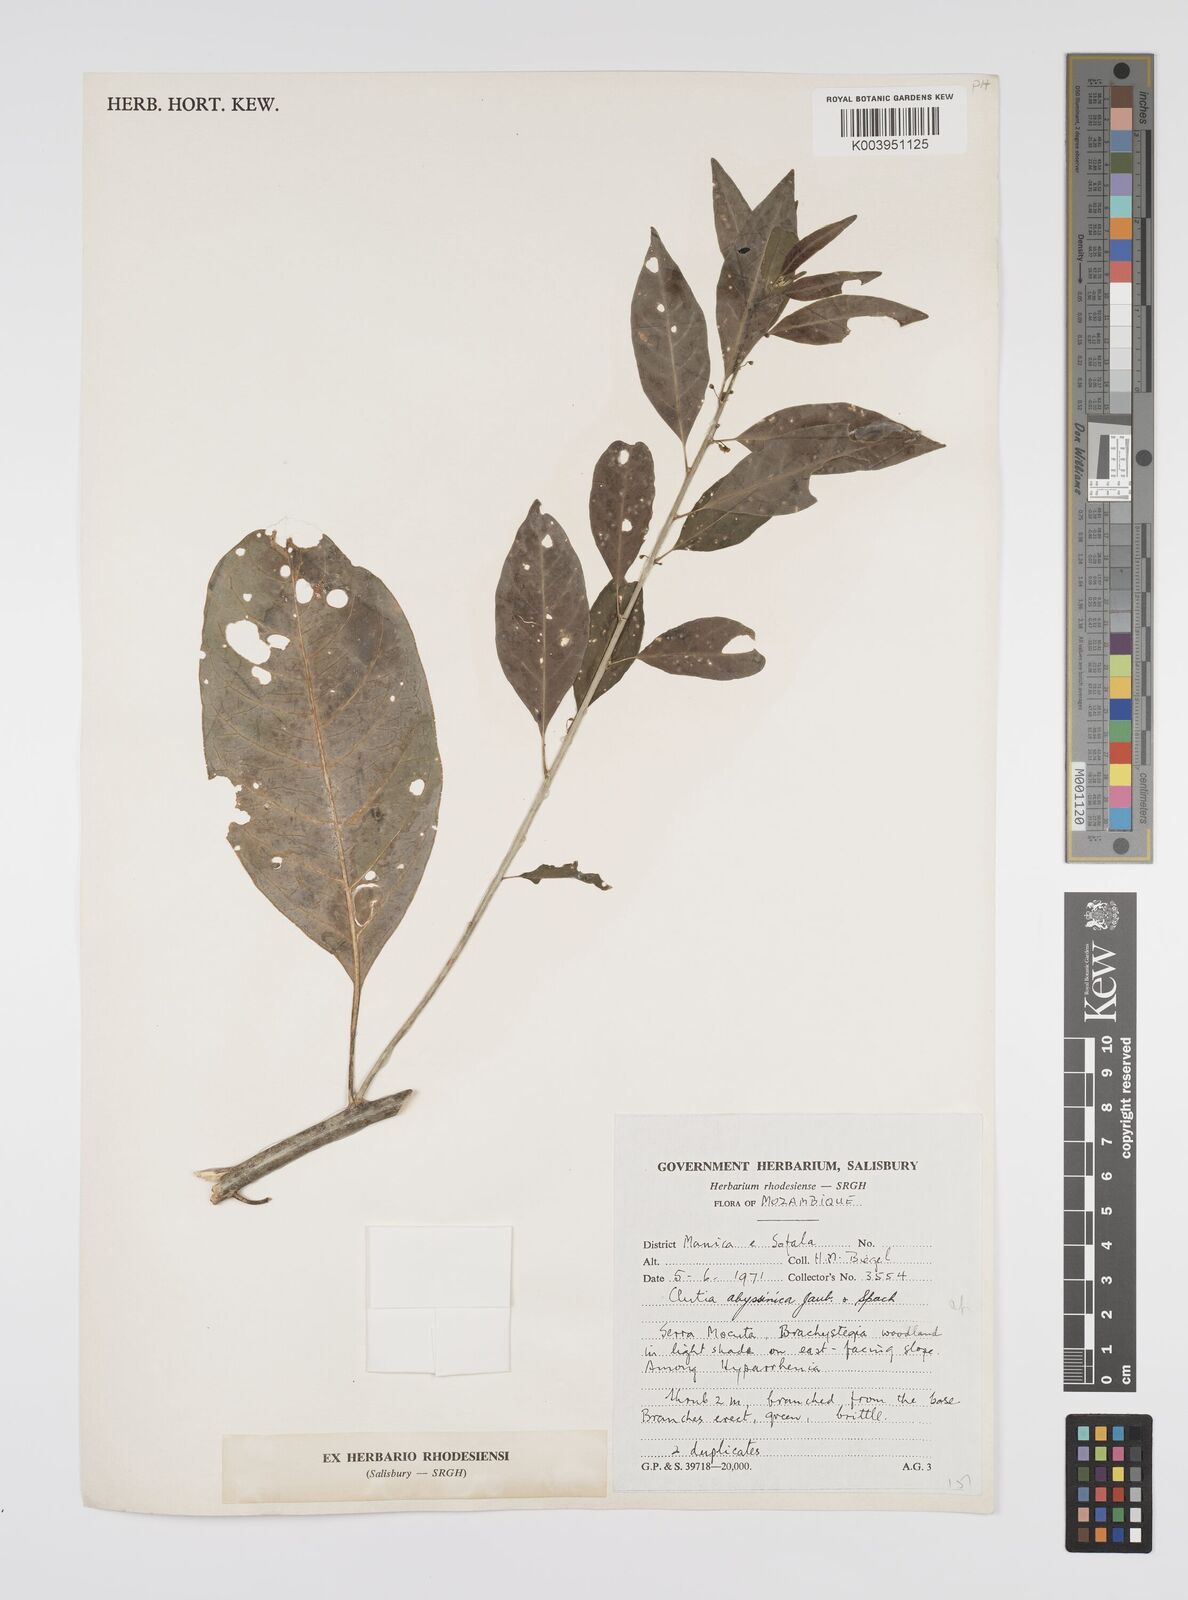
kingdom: Plantae
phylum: Tracheophyta
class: Magnoliopsida
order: Malpighiales
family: Peraceae
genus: Clutia
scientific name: Clutia abyssinica
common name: Large lightning bush
